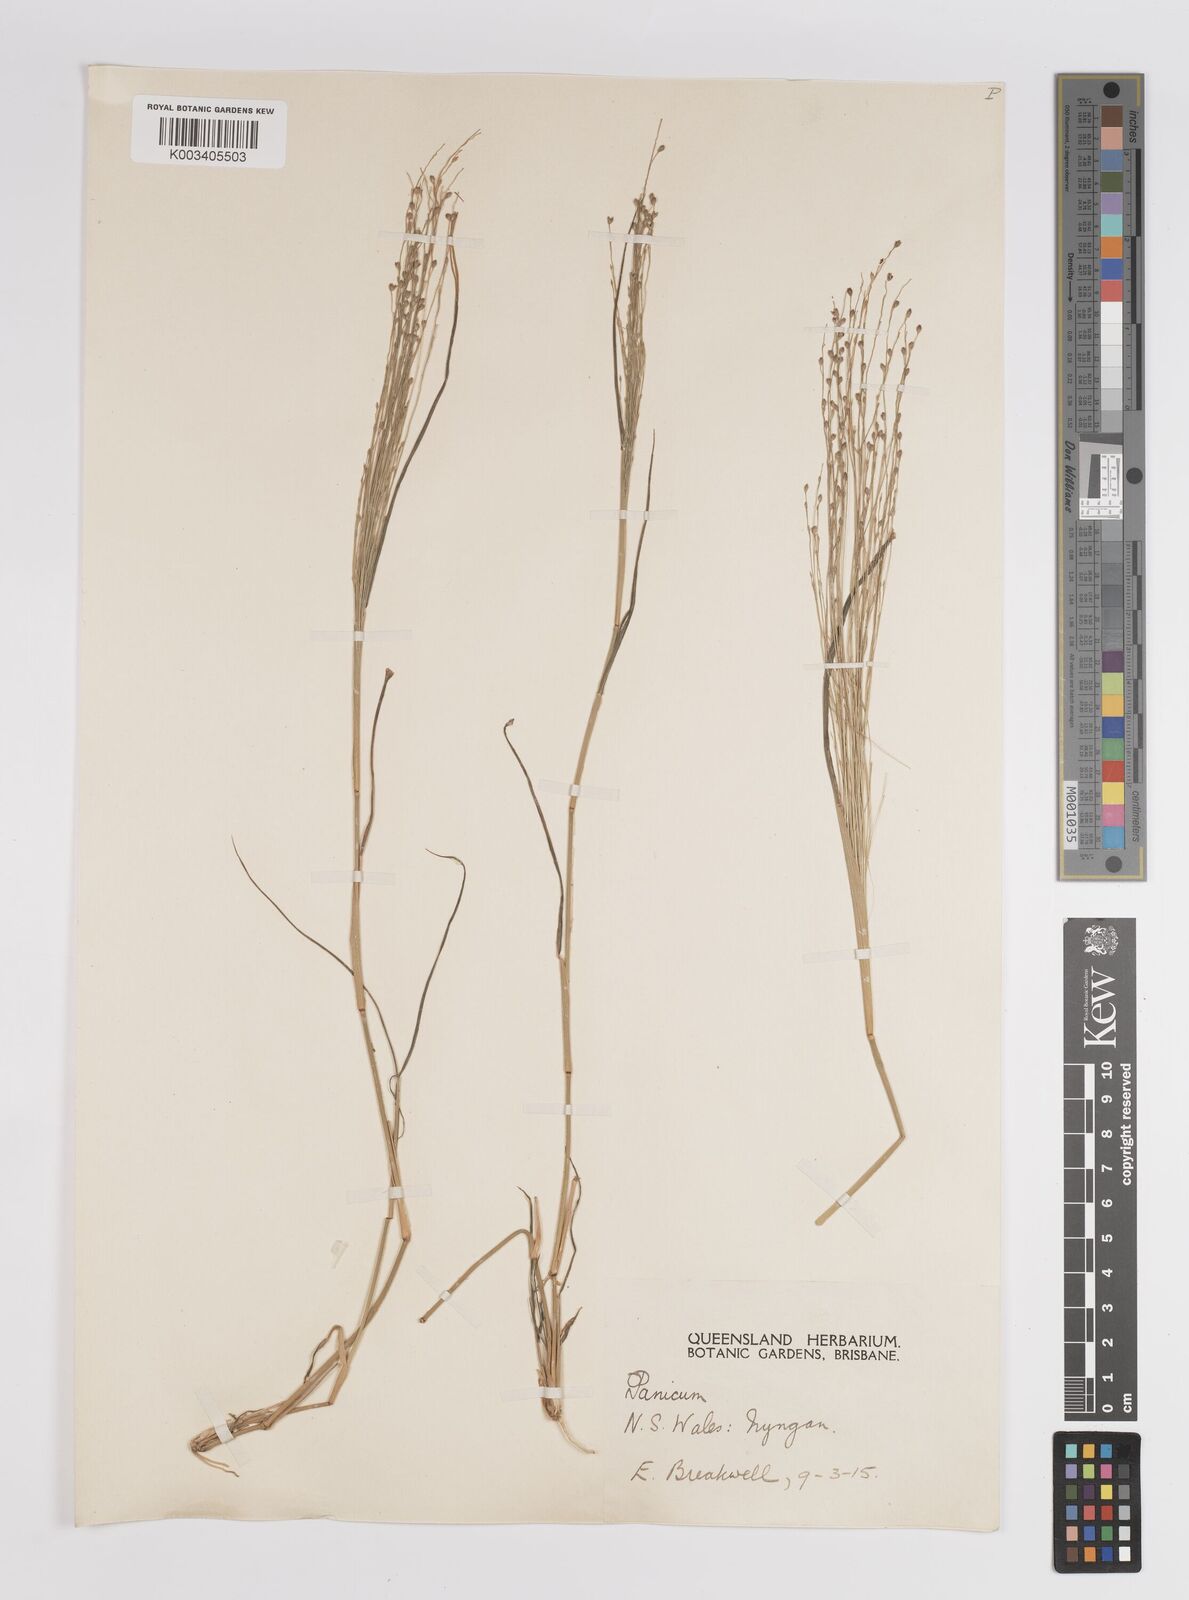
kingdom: Plantae
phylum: Tracheophyta
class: Liliopsida
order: Poales
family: Poaceae
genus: Panicum
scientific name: Panicum
